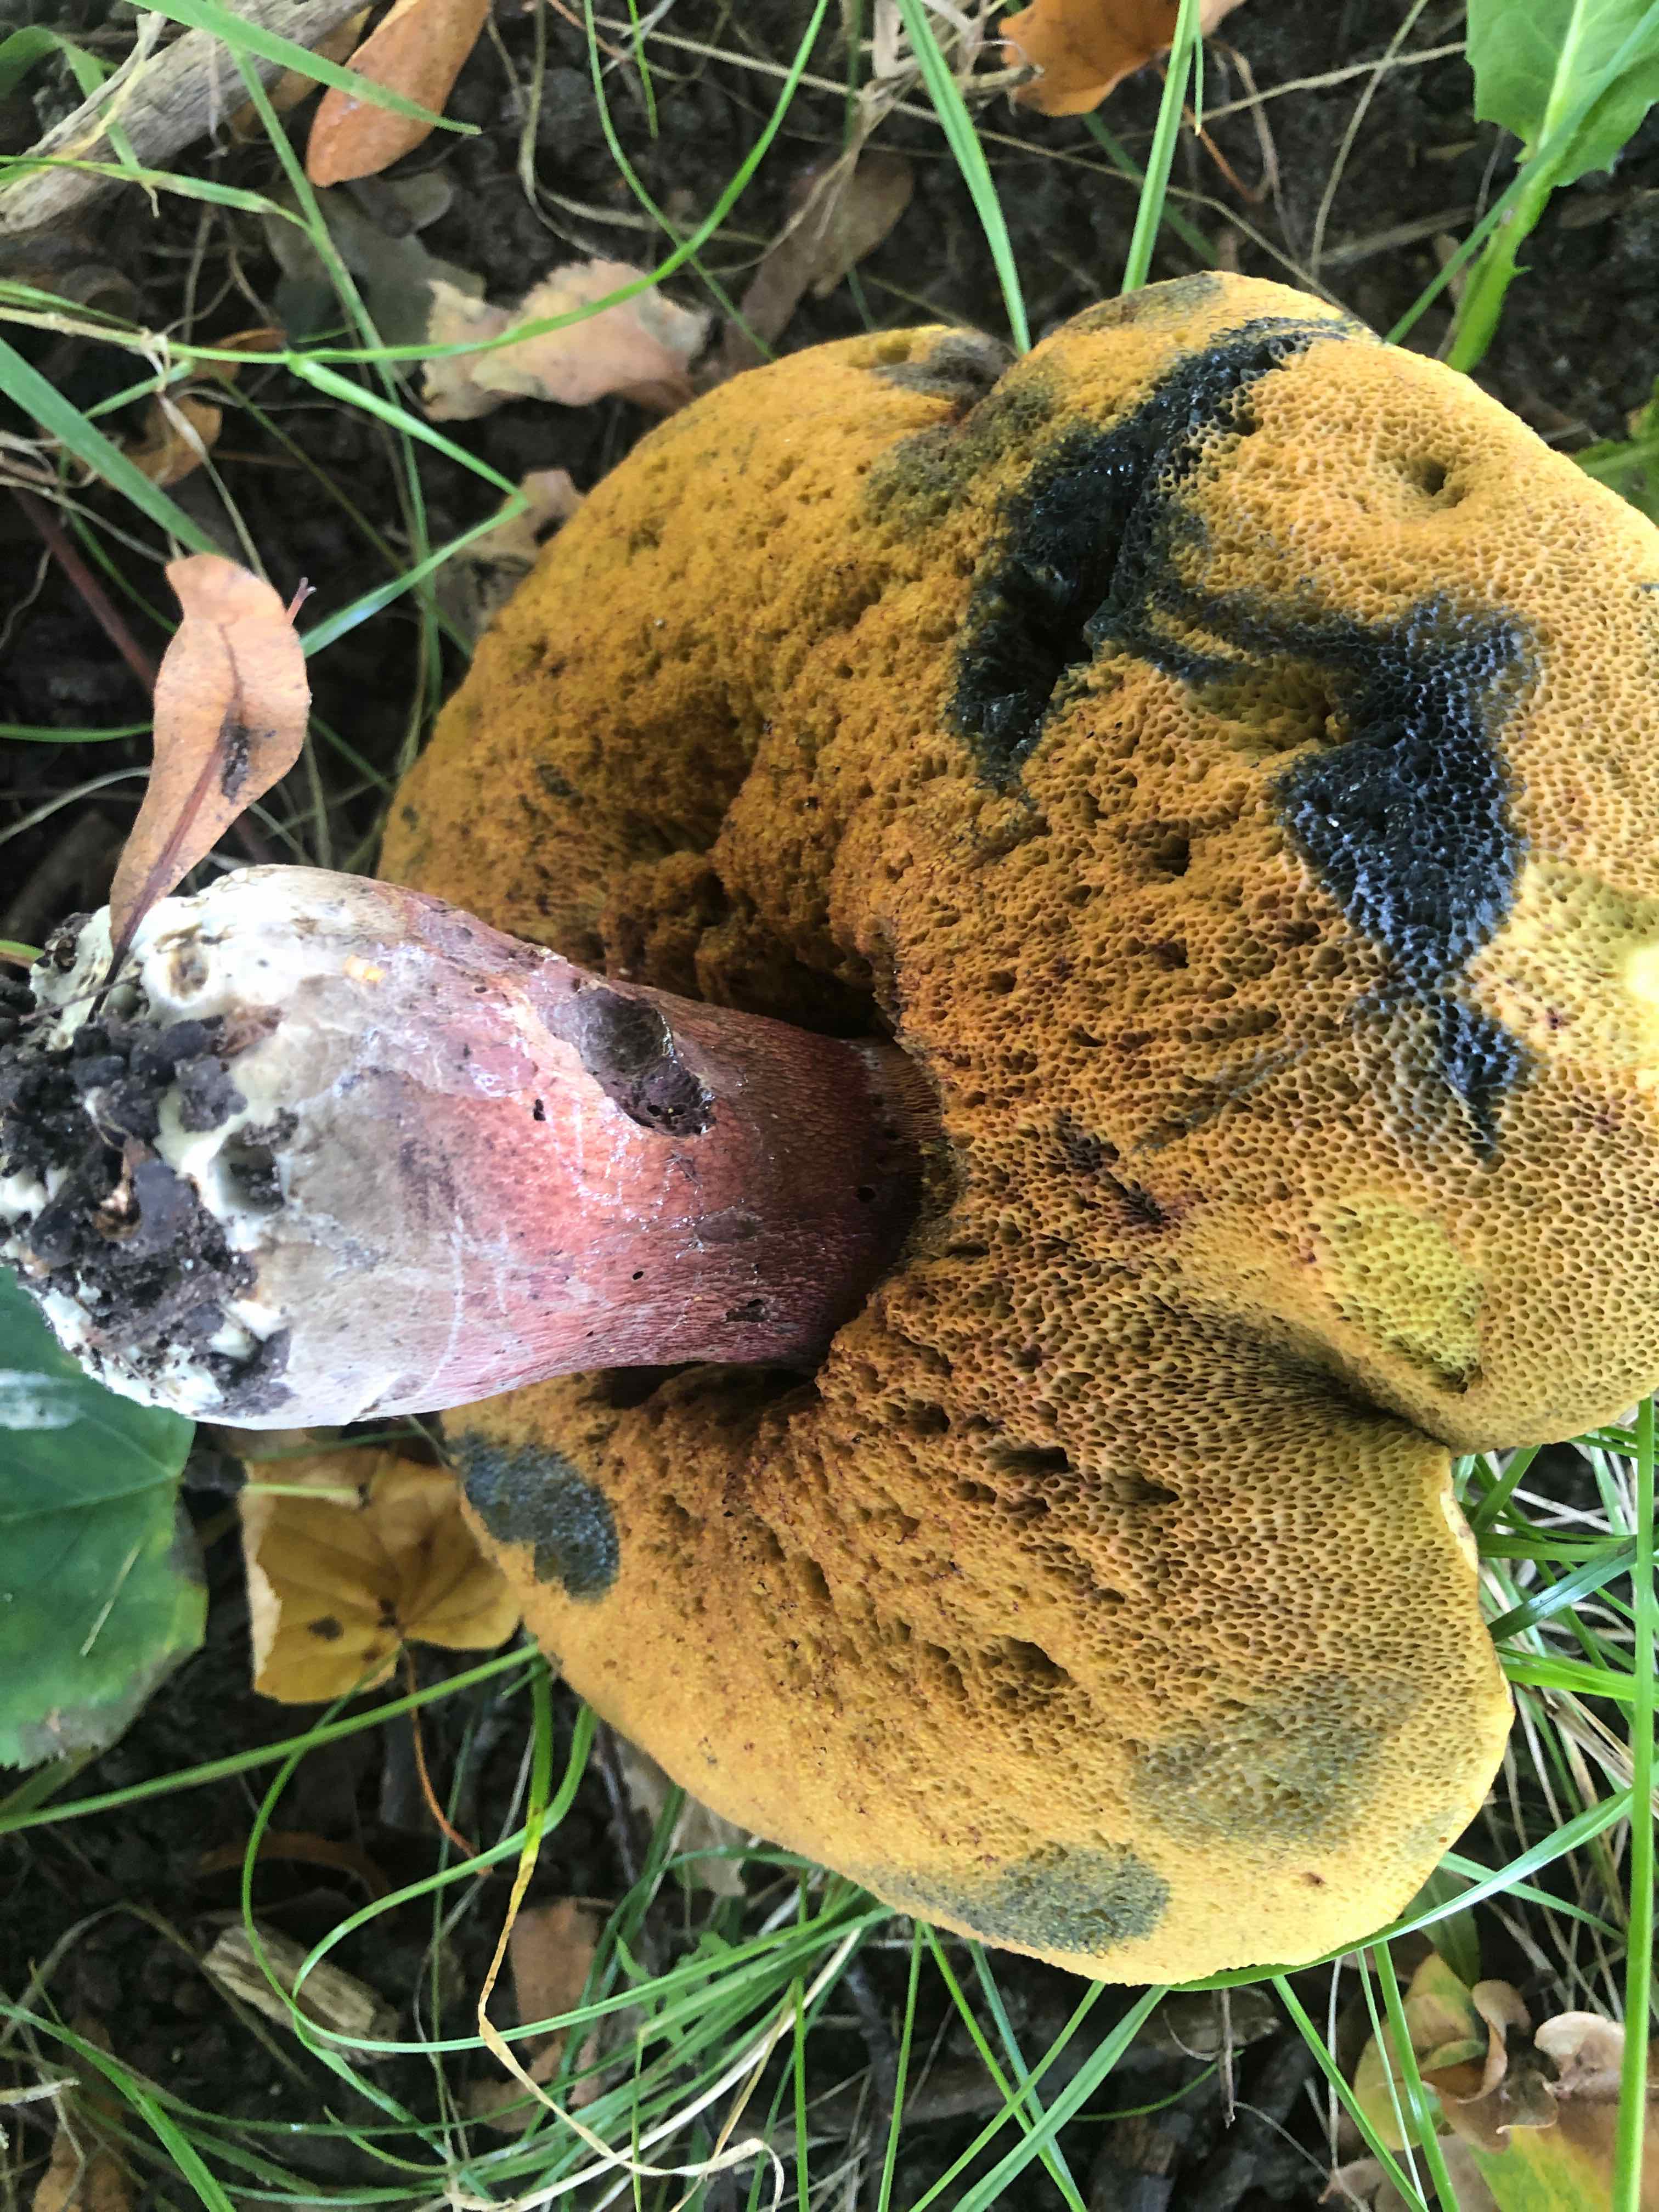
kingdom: Fungi
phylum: Basidiomycota
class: Agaricomycetes
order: Boletales
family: Boletaceae
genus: Suillellus
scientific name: Suillellus luridus
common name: netstokket indigorørhat
